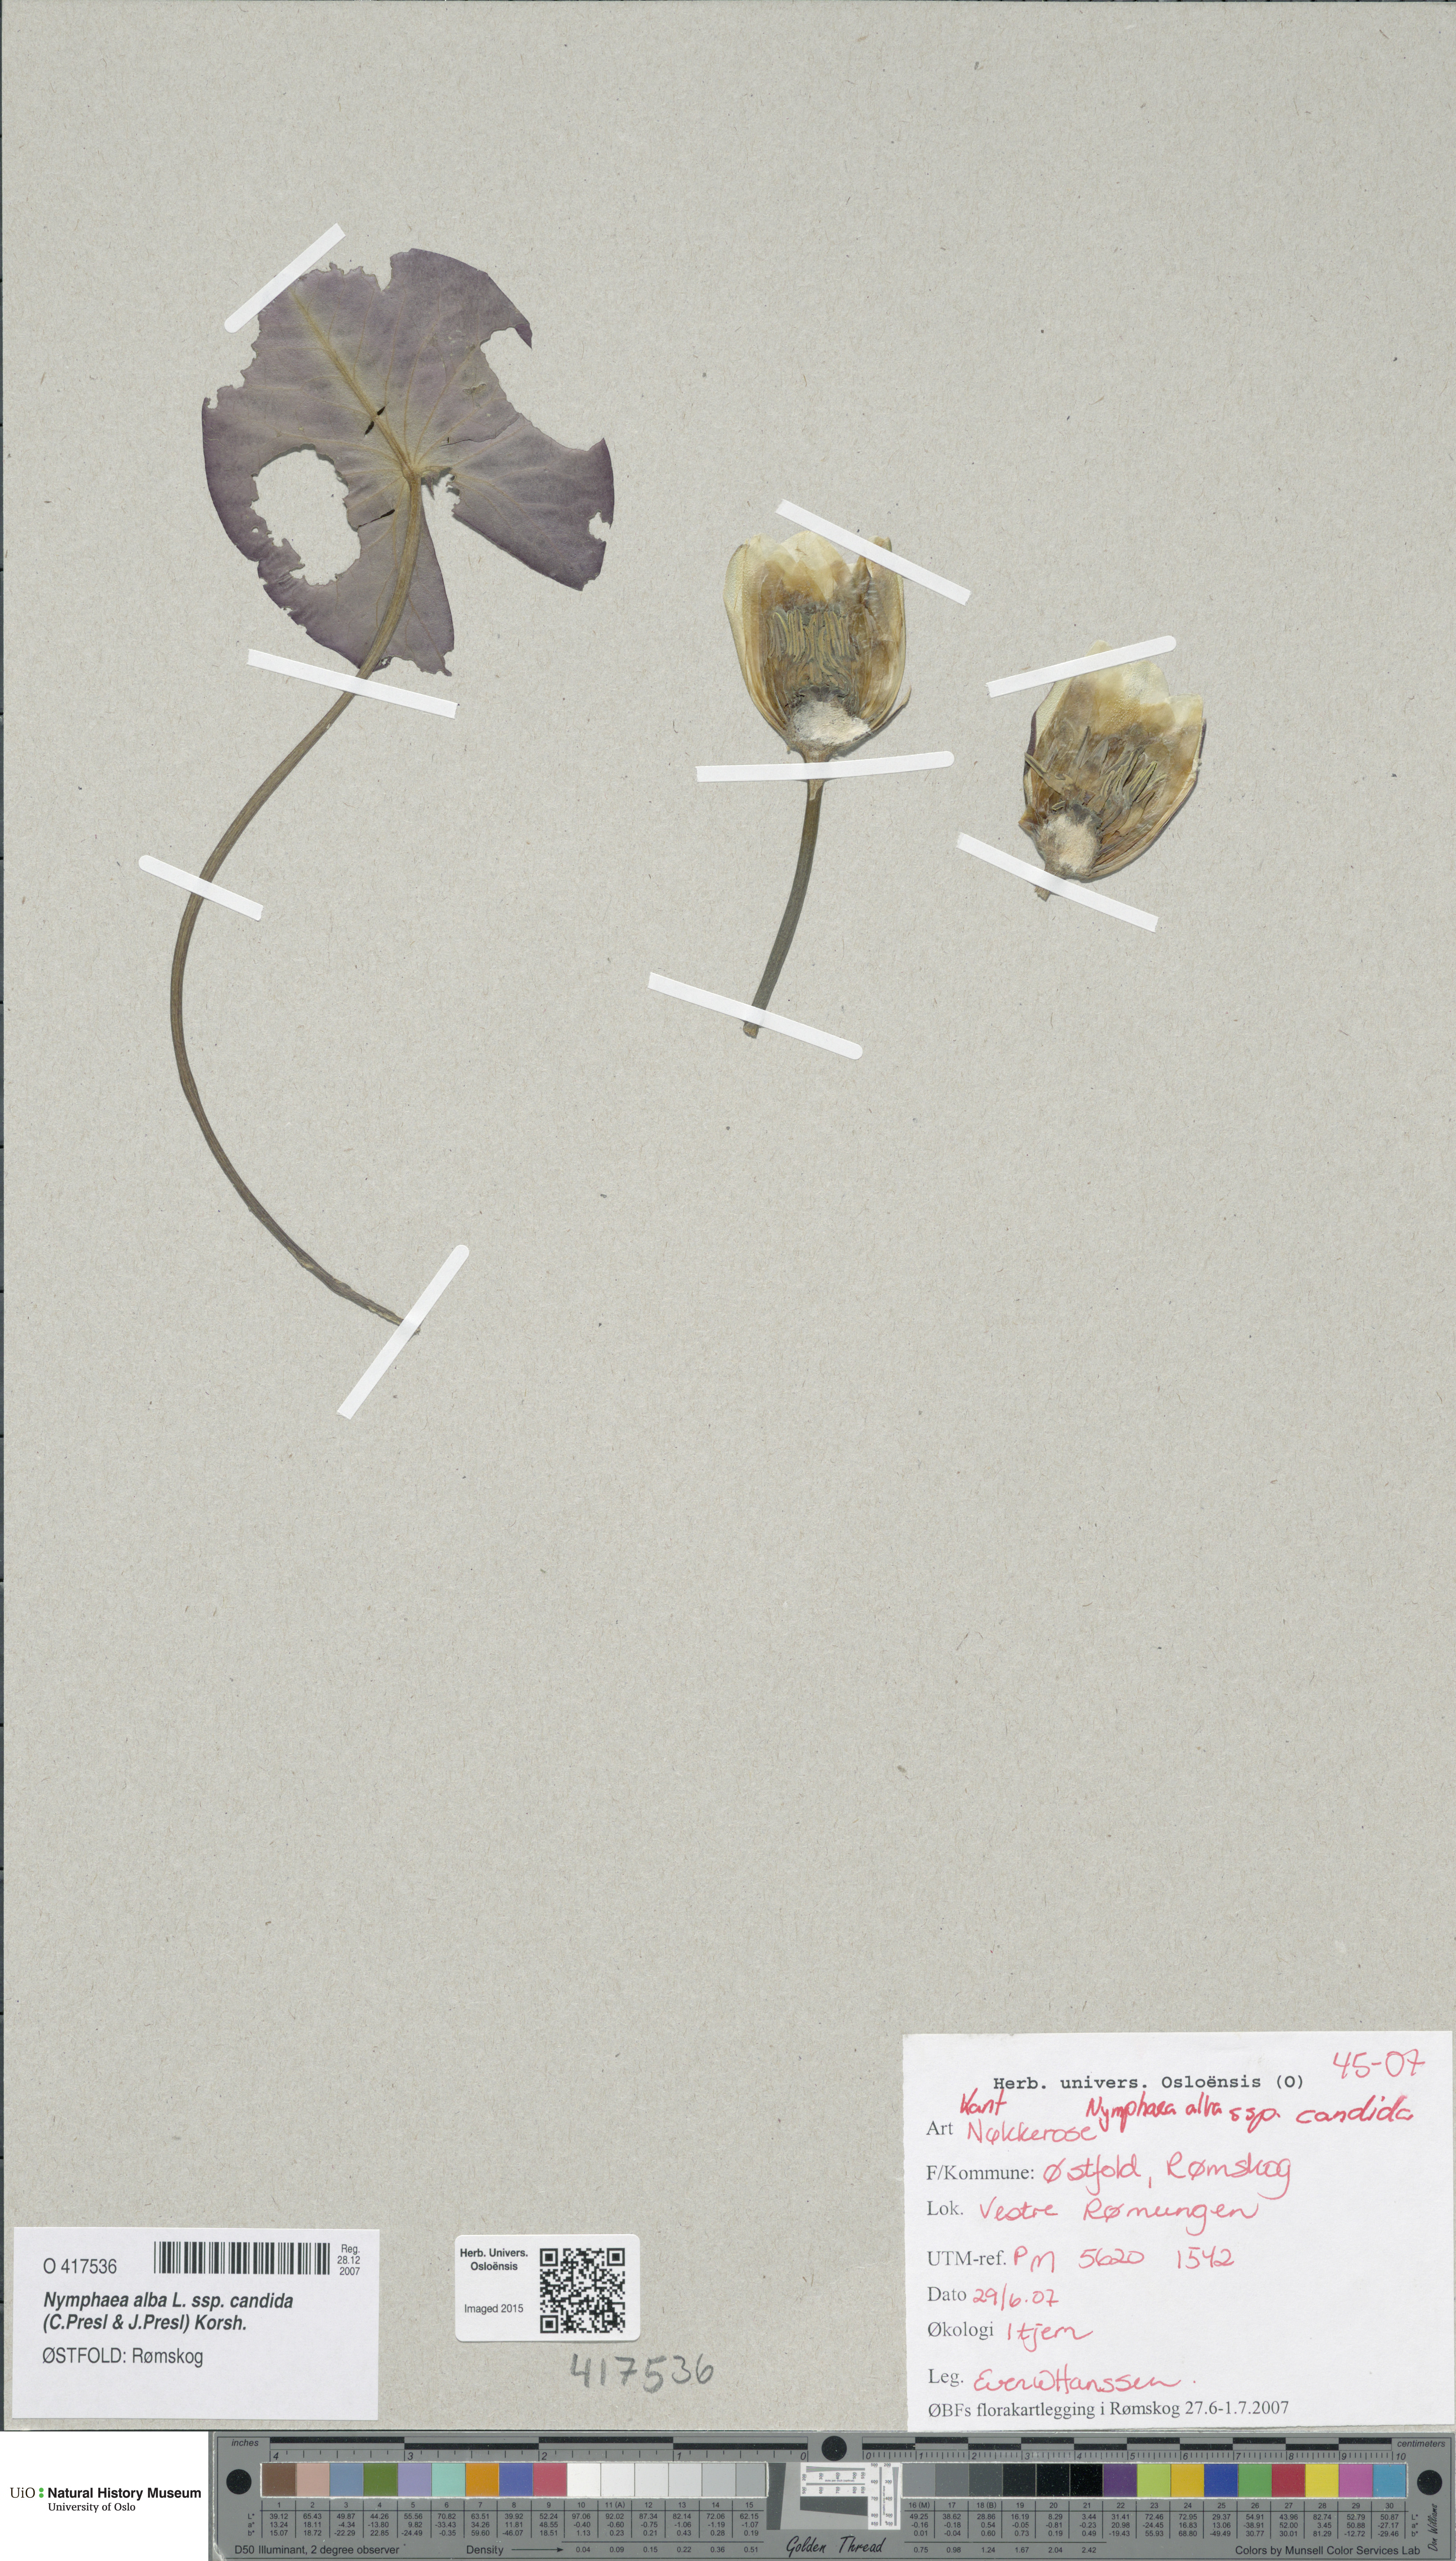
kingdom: Plantae
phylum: Tracheophyta
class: Magnoliopsida
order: Nymphaeales
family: Nymphaeaceae
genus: Nymphaea
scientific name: Nymphaea candida
